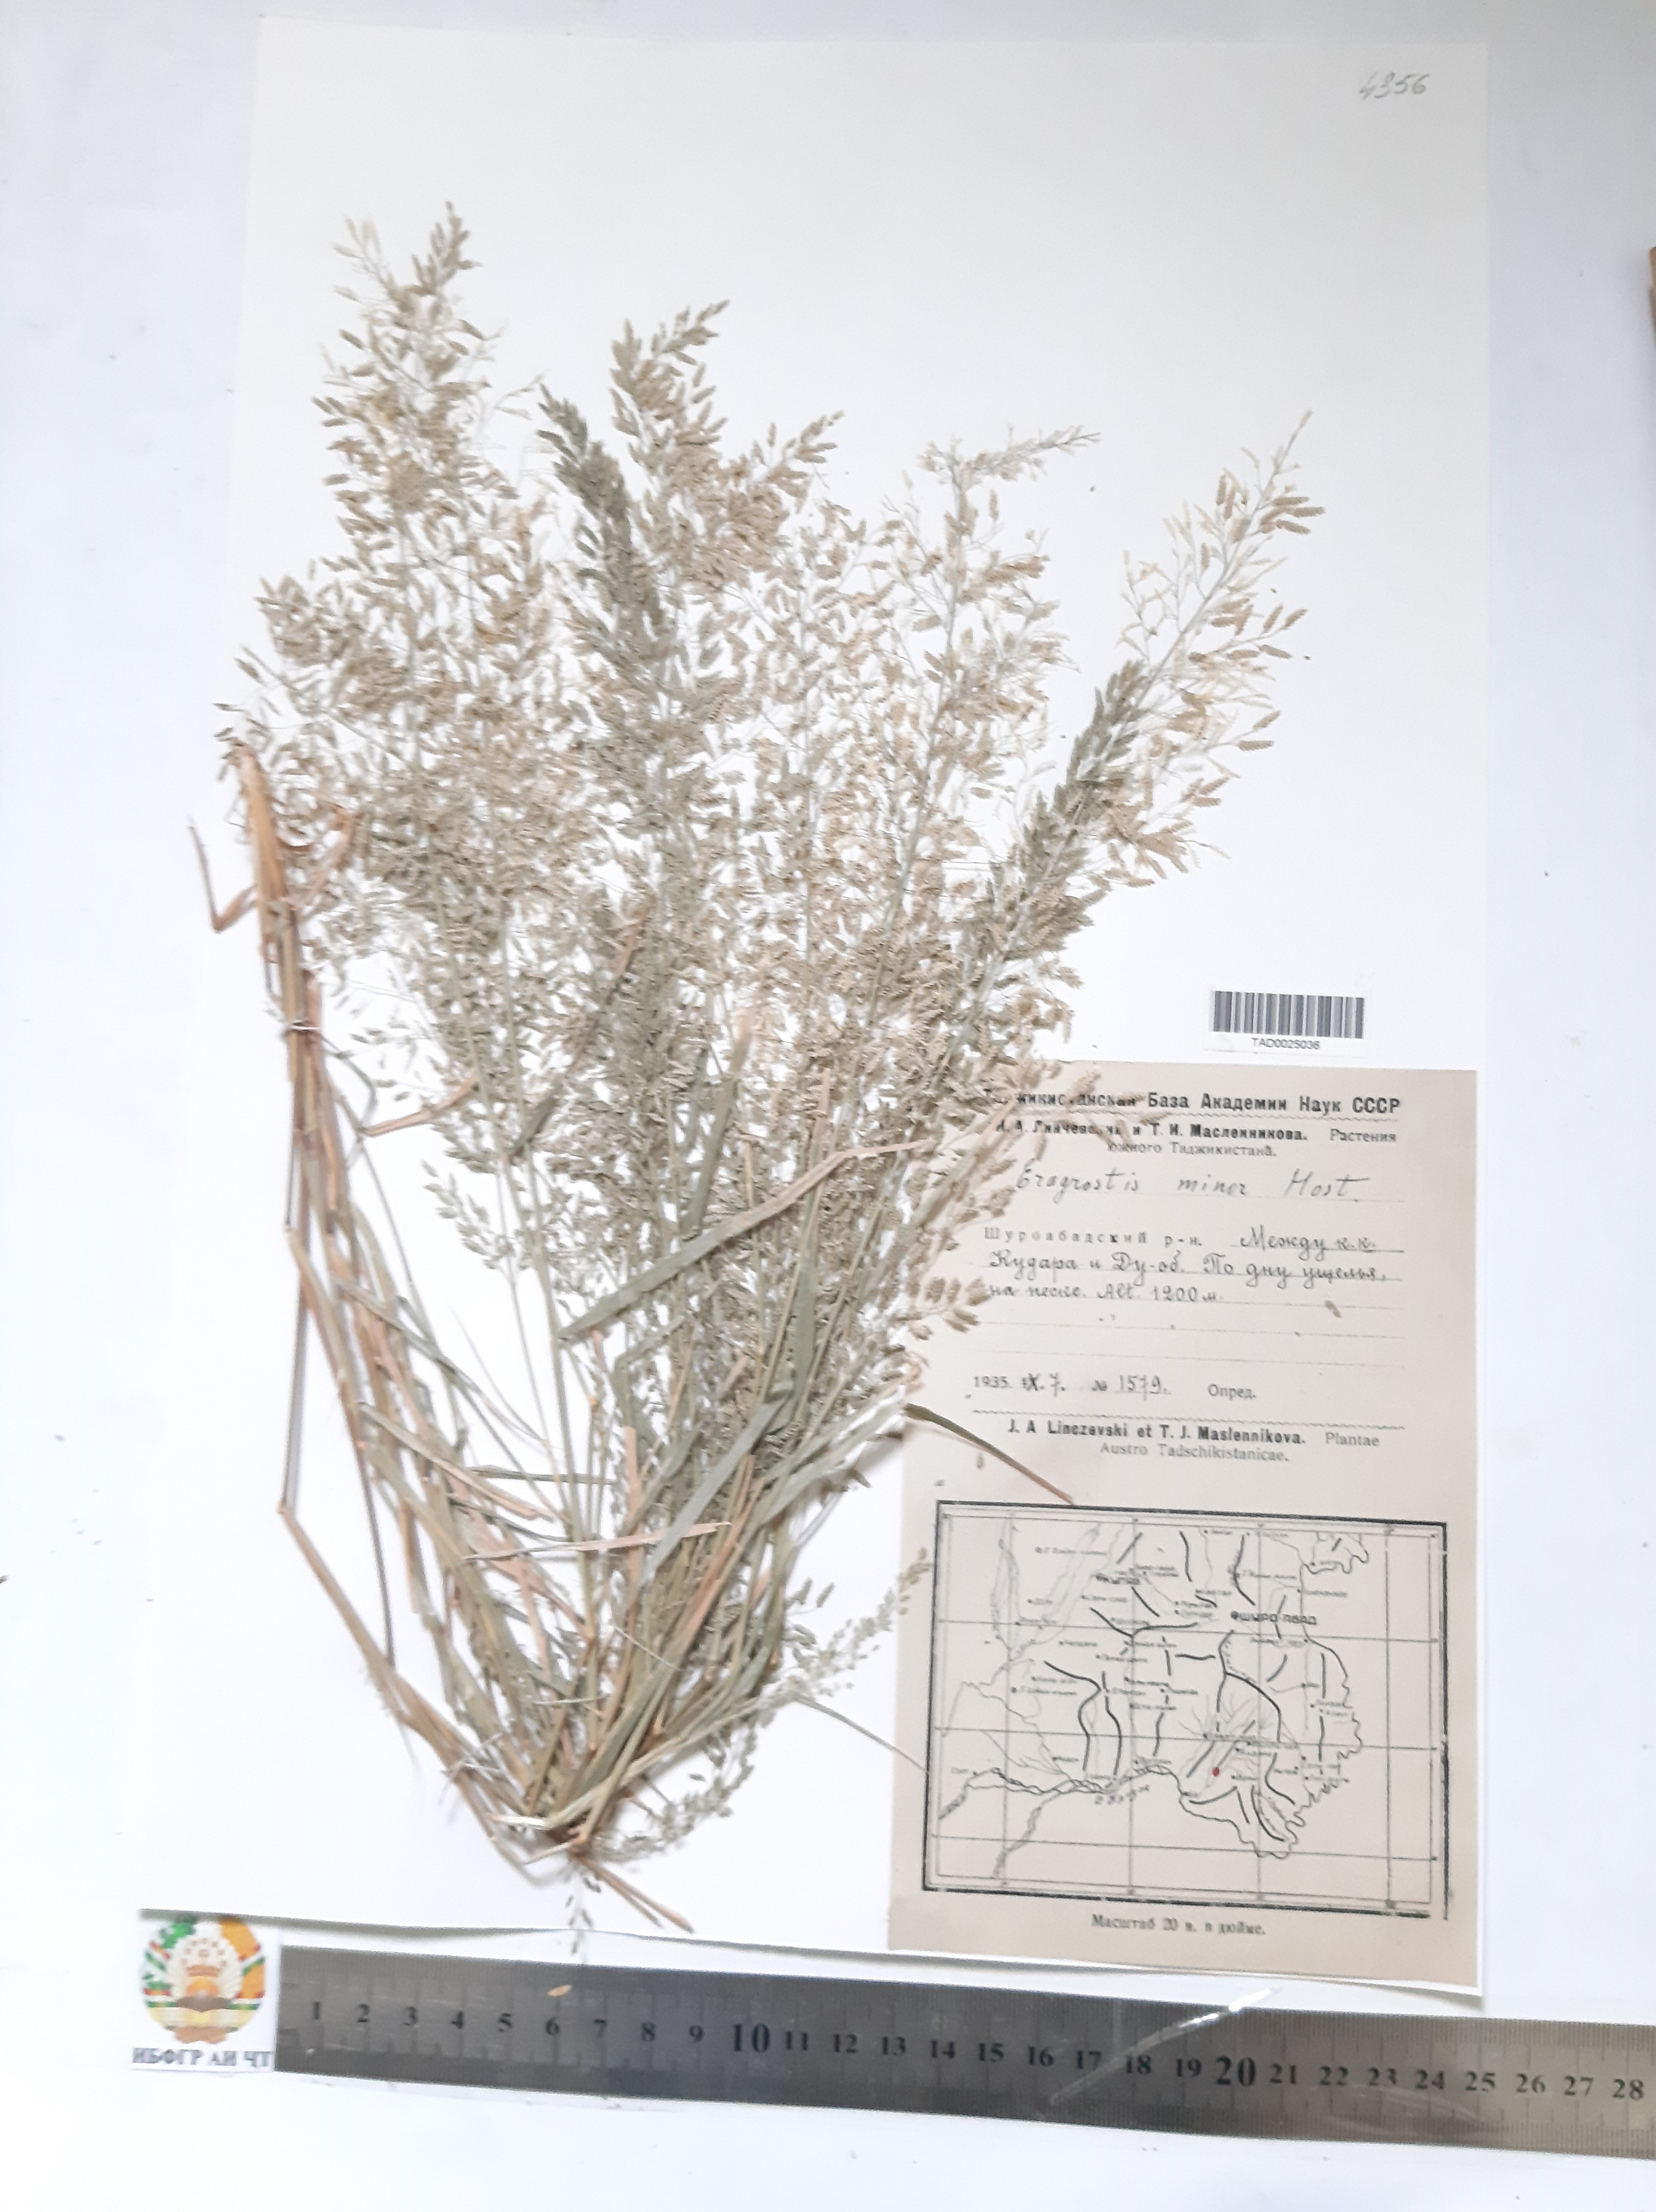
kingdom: Plantae
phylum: Tracheophyta
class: Liliopsida
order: Poales
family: Poaceae
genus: Eragrostis
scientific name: Eragrostis minor
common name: Small love-grass
